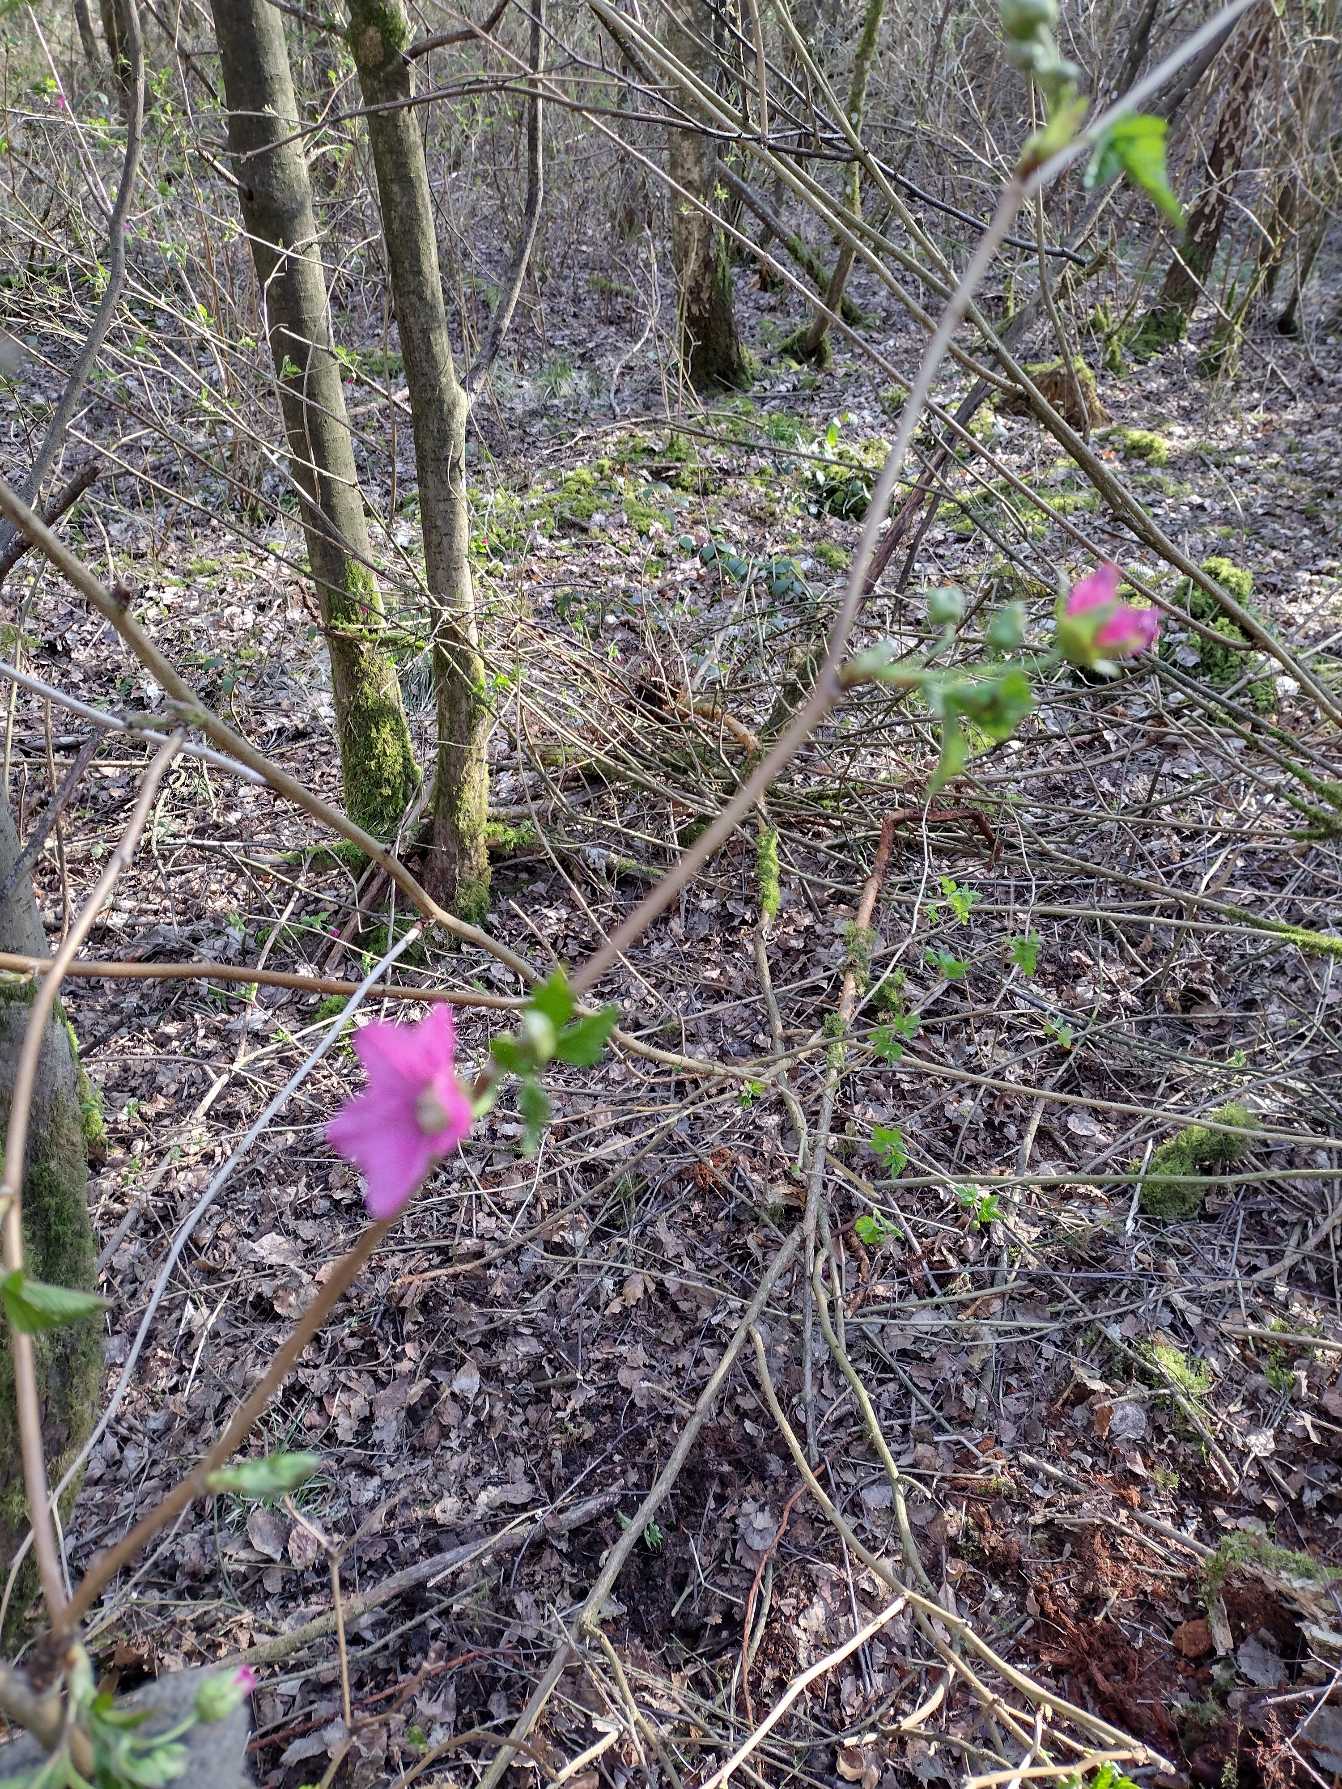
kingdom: Plantae
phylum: Tracheophyta
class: Magnoliopsida
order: Rosales
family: Rosaceae
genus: Rubus
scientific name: Rubus spectabilis
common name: Laksebær
